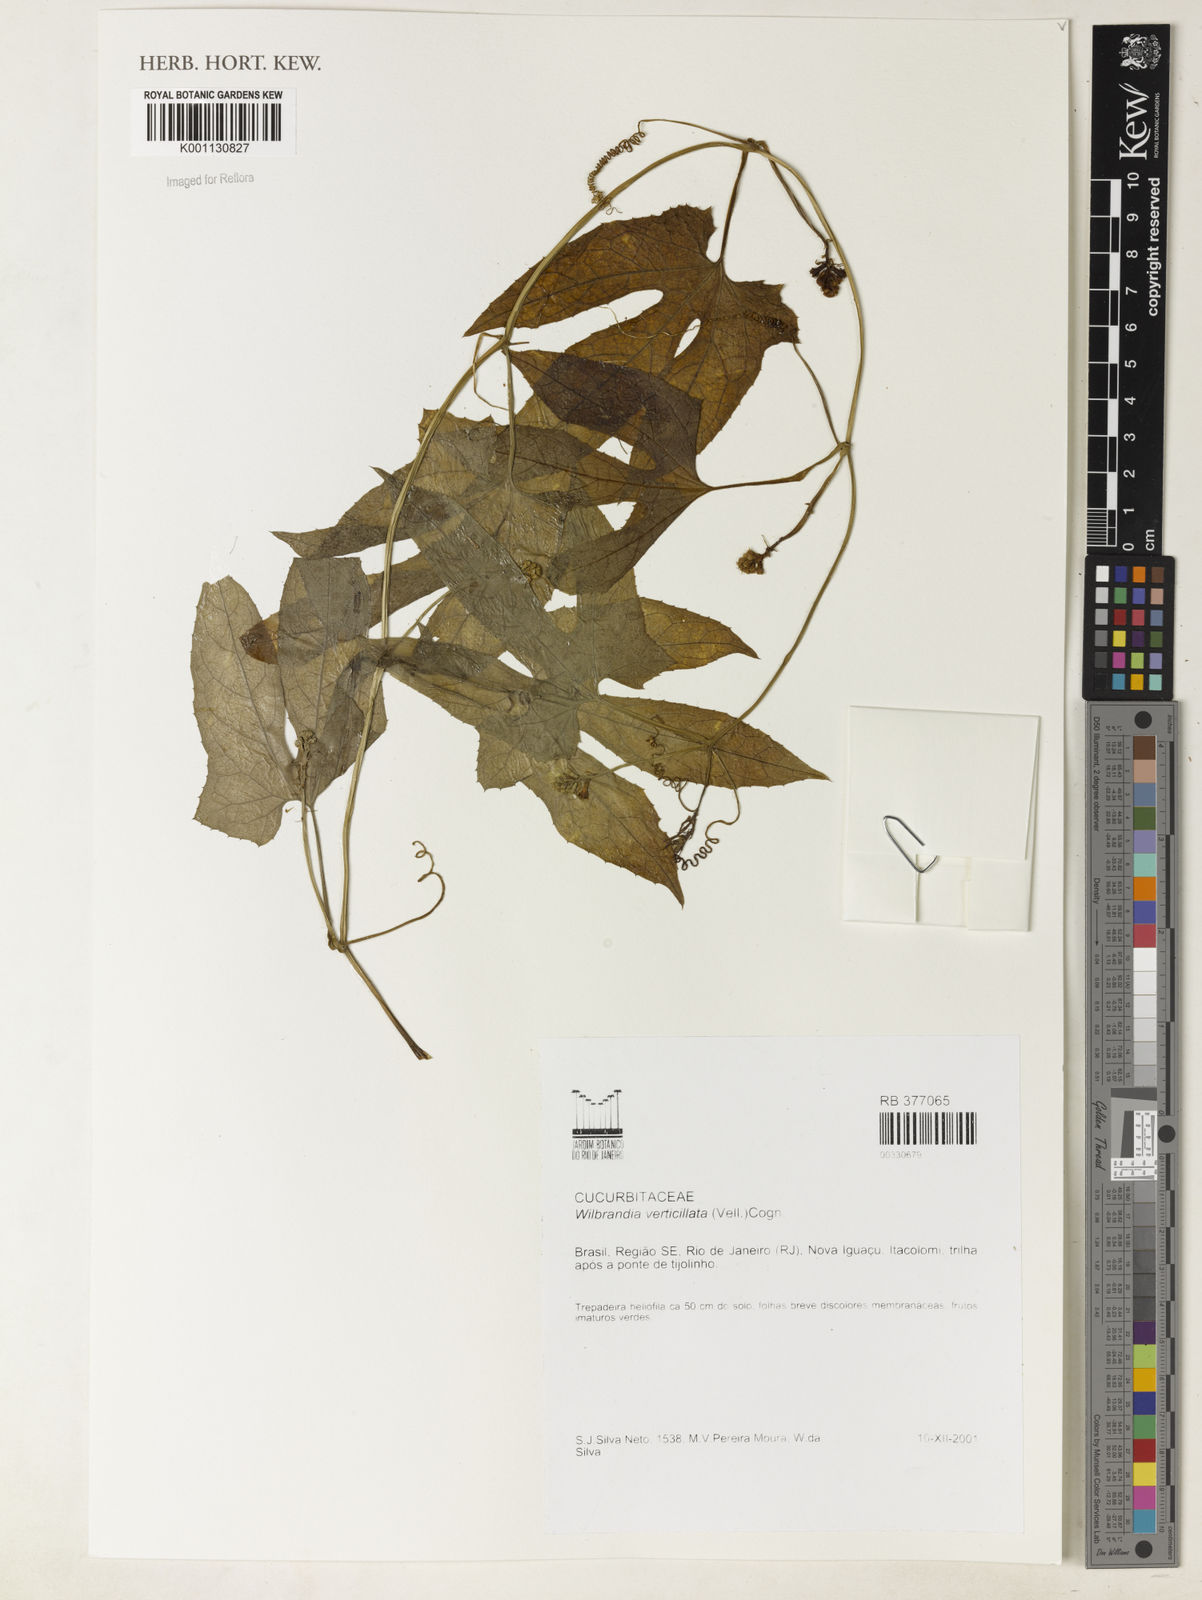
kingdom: Plantae
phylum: Tracheophyta
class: Magnoliopsida
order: Cucurbitales
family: Cucurbitaceae
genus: Wilbrandia
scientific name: Wilbrandia verticillata
